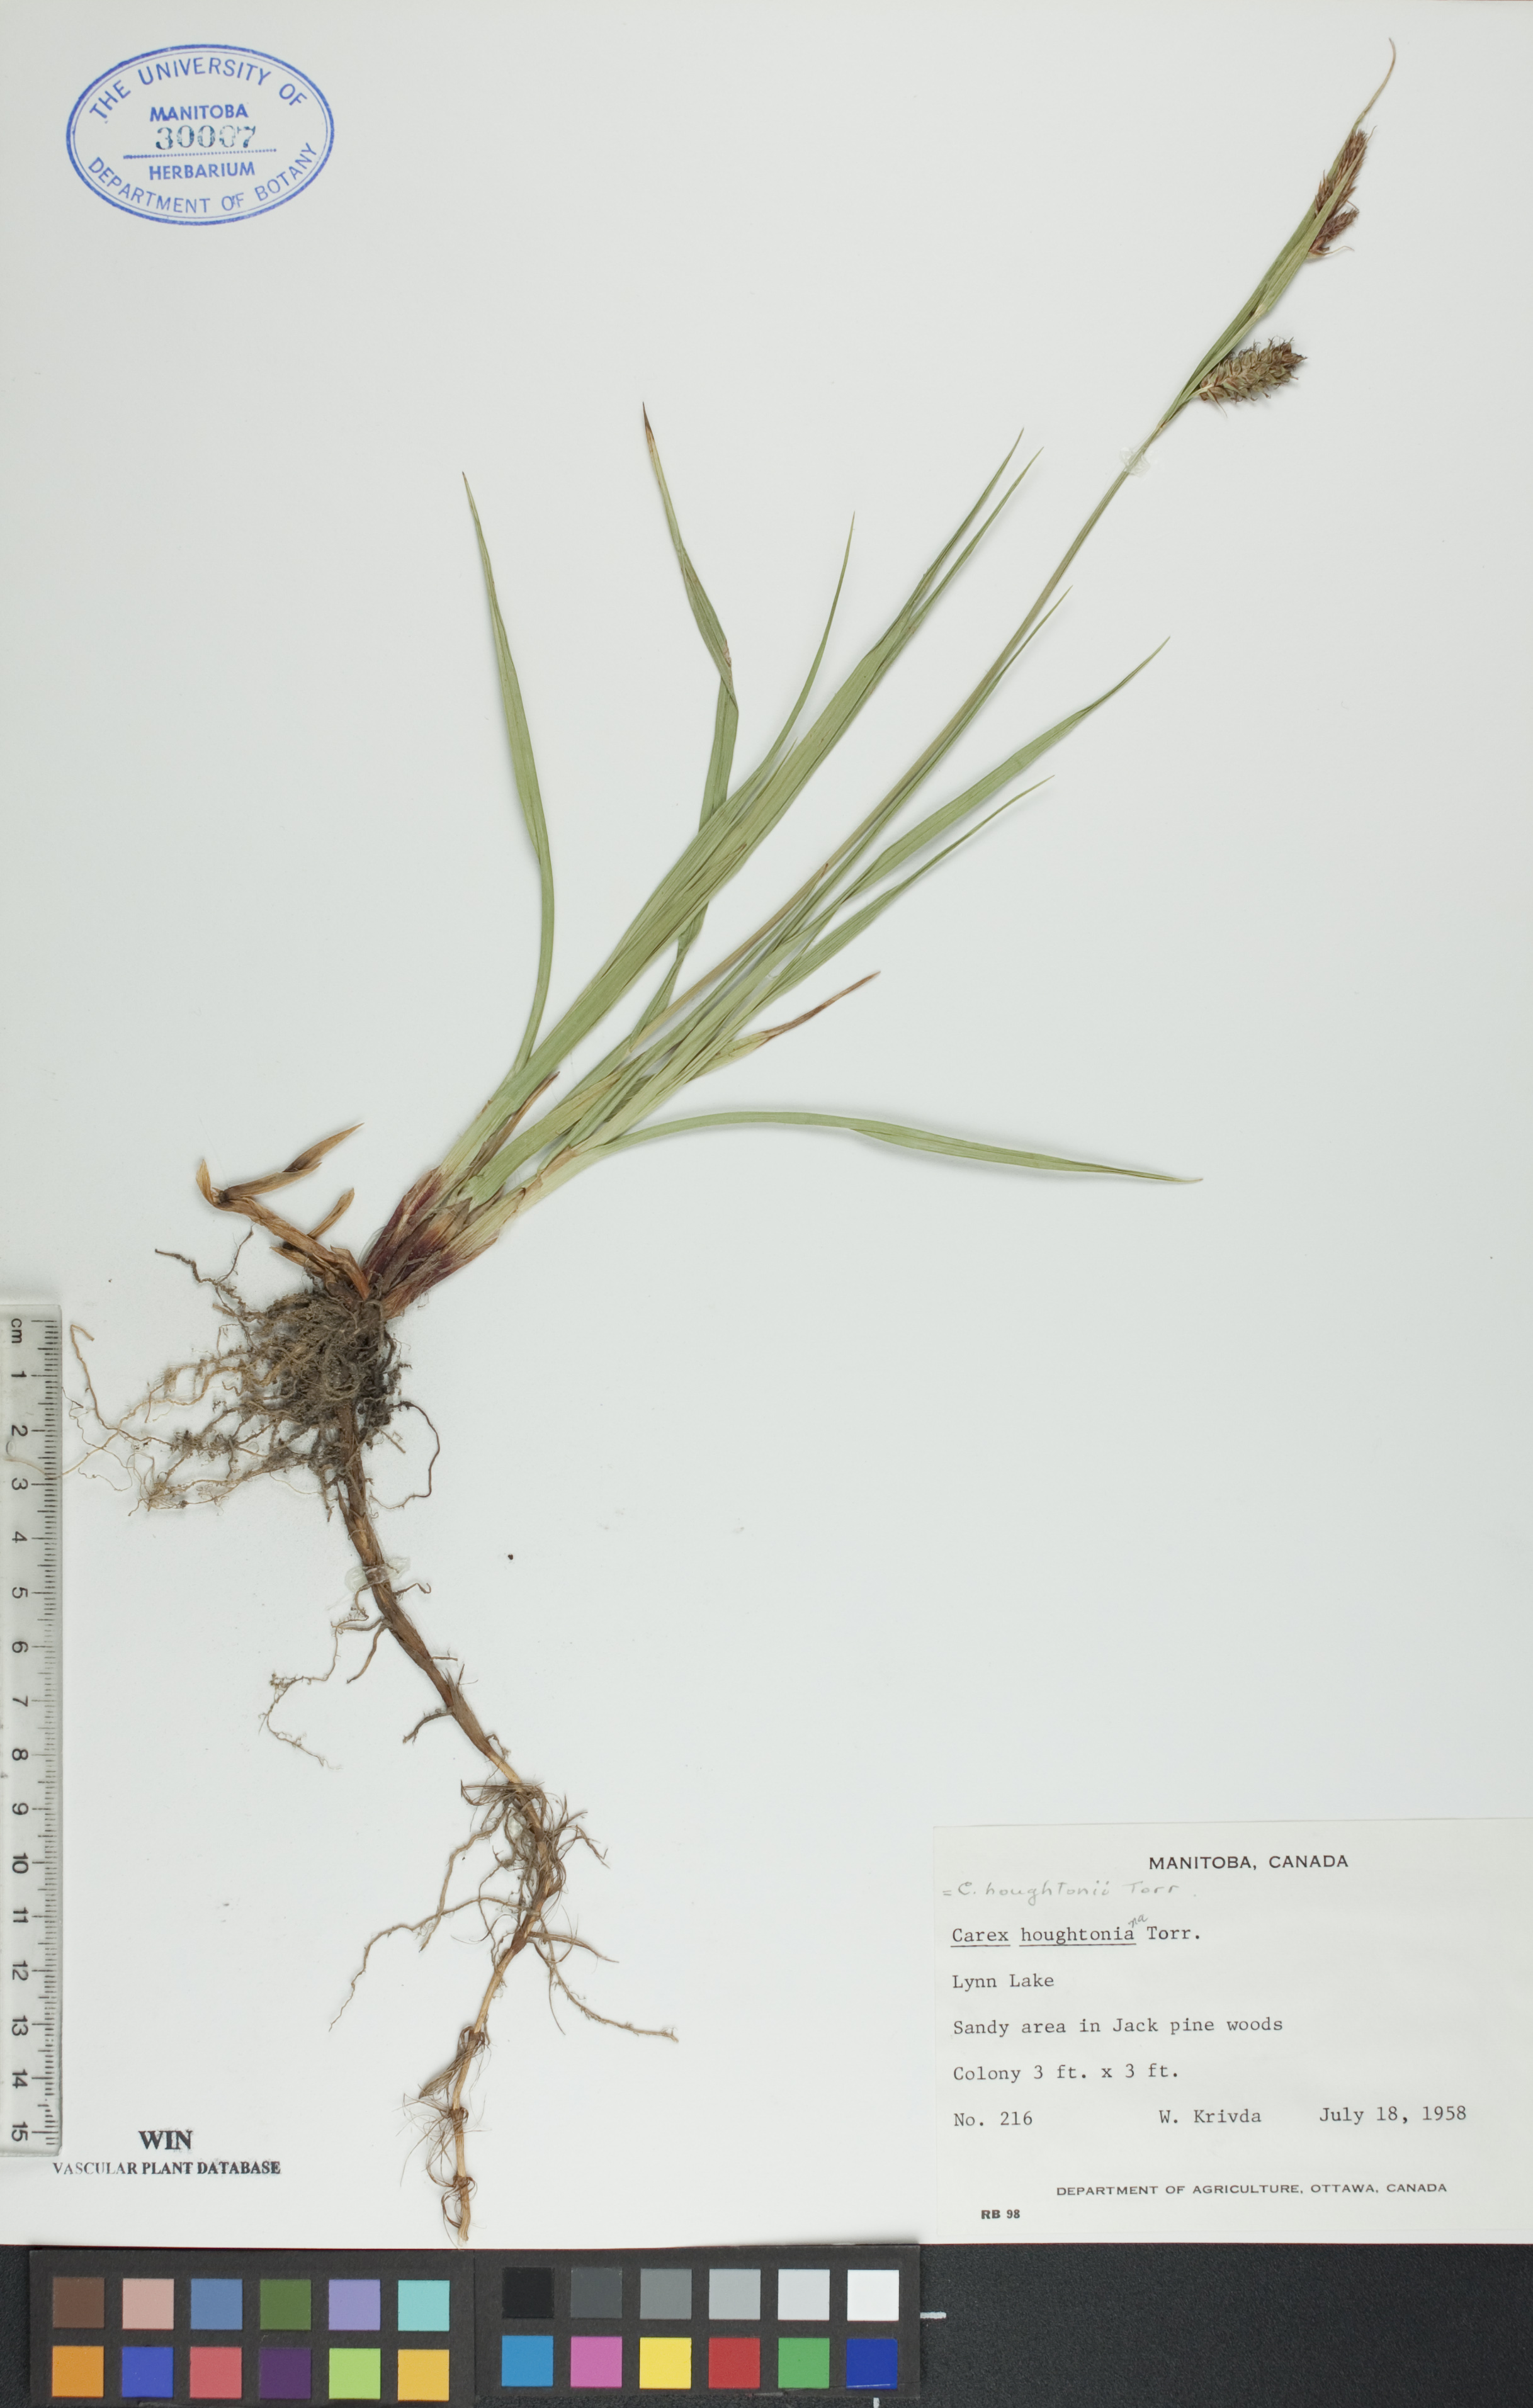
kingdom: Plantae
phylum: Tracheophyta
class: Liliopsida
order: Poales
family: Cyperaceae
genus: Carex
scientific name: Carex houghtoniana
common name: Houghton's sedge
